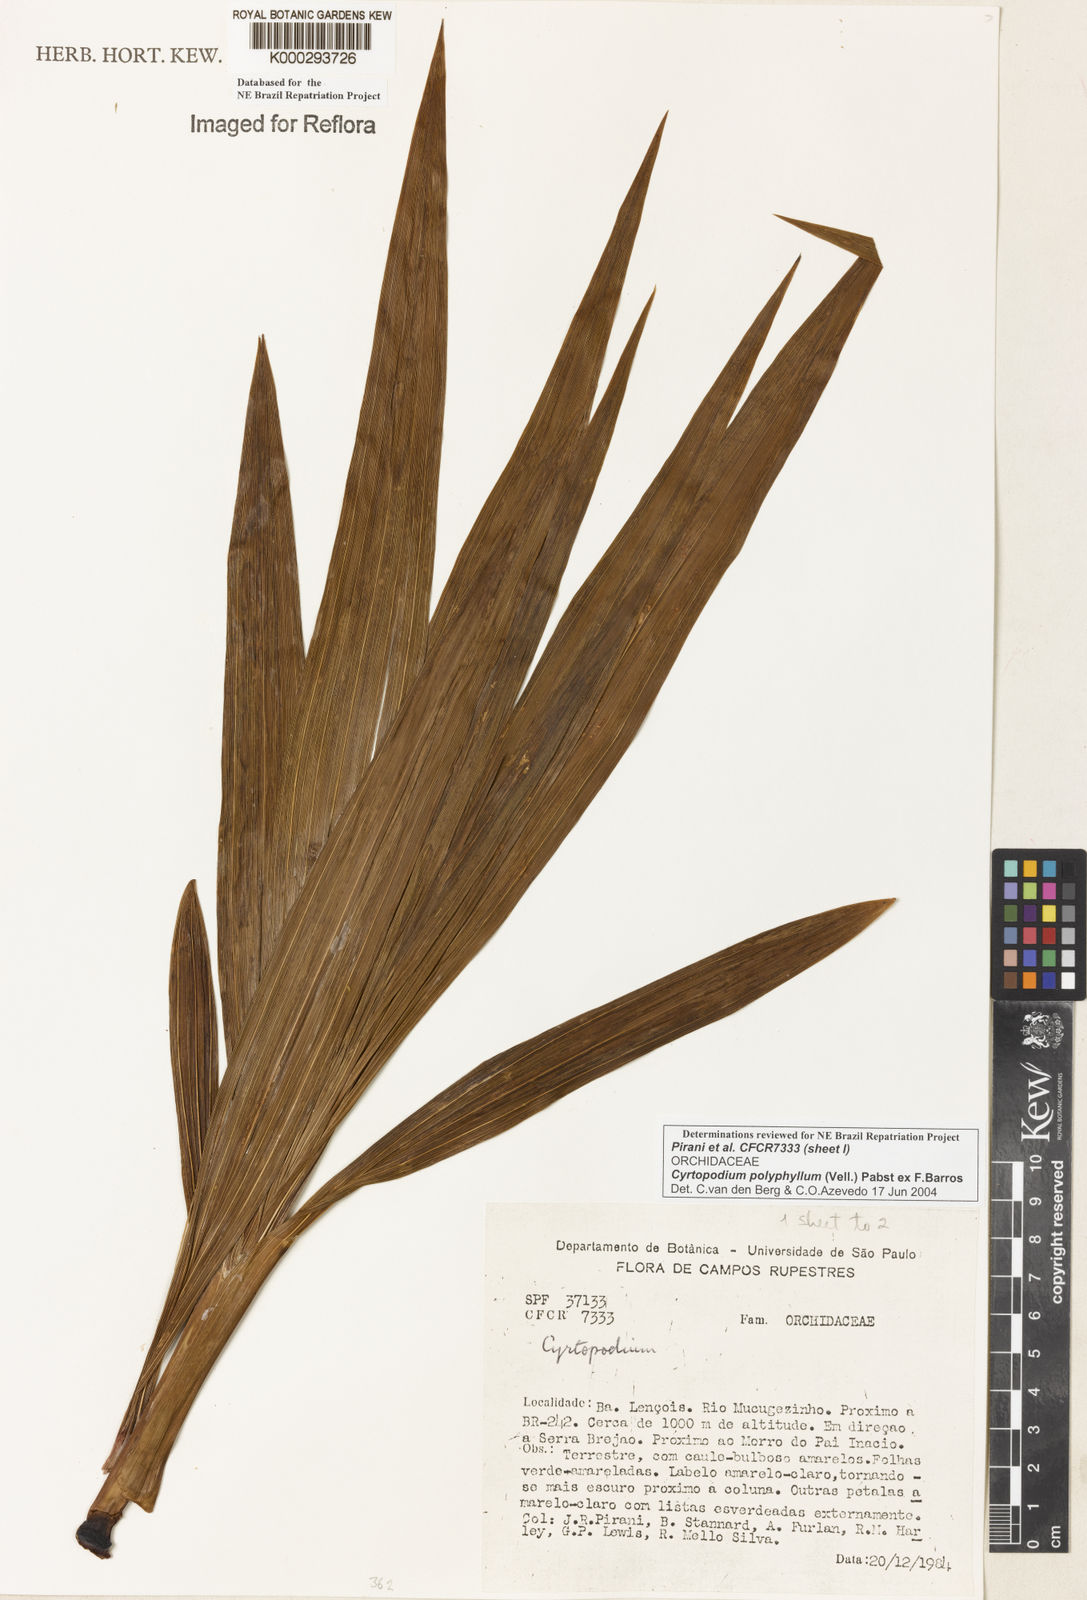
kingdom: Plantae
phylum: Tracheophyta
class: Liliopsida
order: Asparagales
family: Orchidaceae
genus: Cyrtopodium
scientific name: Cyrtopodium flavum
